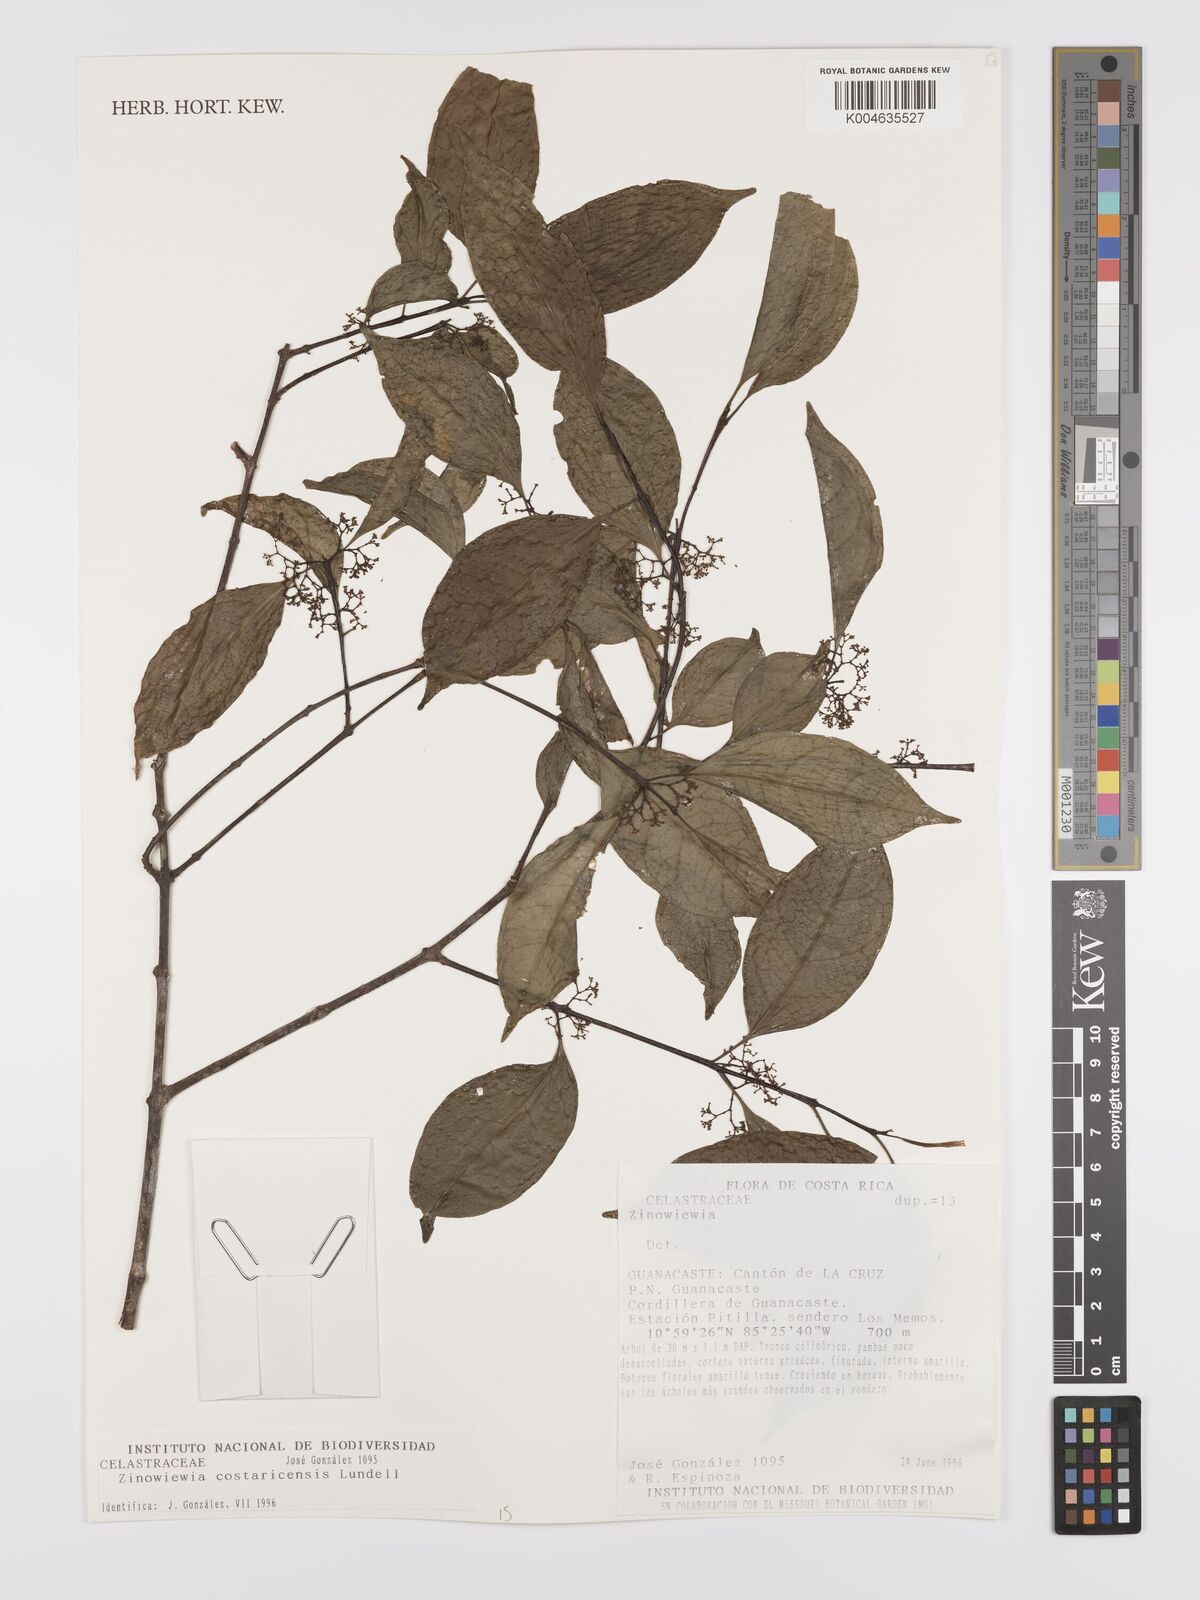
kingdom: Plantae
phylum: Tracheophyta
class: Magnoliopsida
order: Celastrales
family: Celastraceae
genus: Zinowiewia
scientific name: Zinowiewia integerrima
